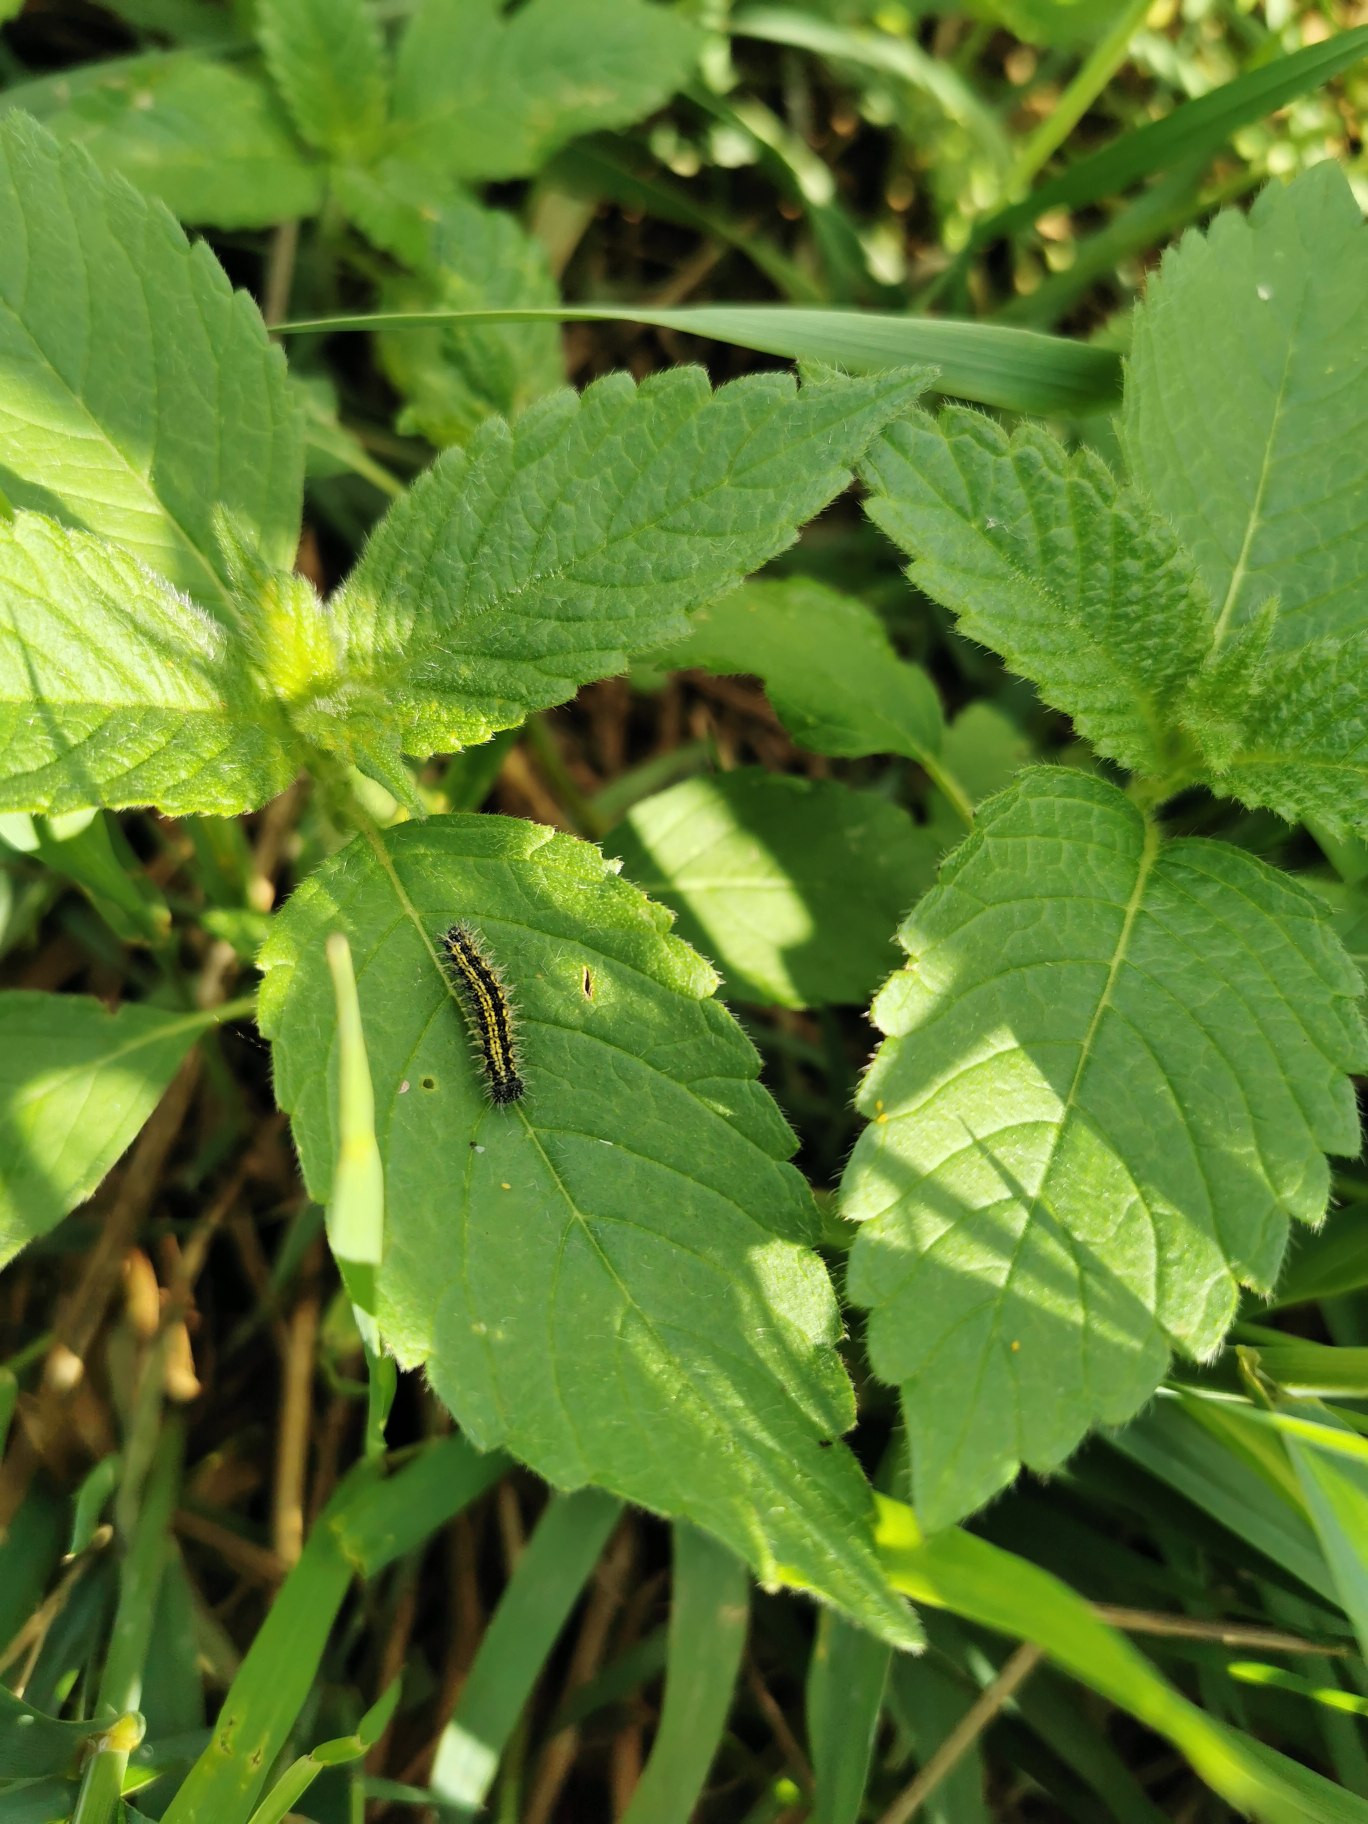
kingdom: Animalia
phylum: Arthropoda
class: Insecta
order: Lepidoptera
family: Nymphalidae
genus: Aglais
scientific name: Aglais urticae
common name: Nældens takvinge
